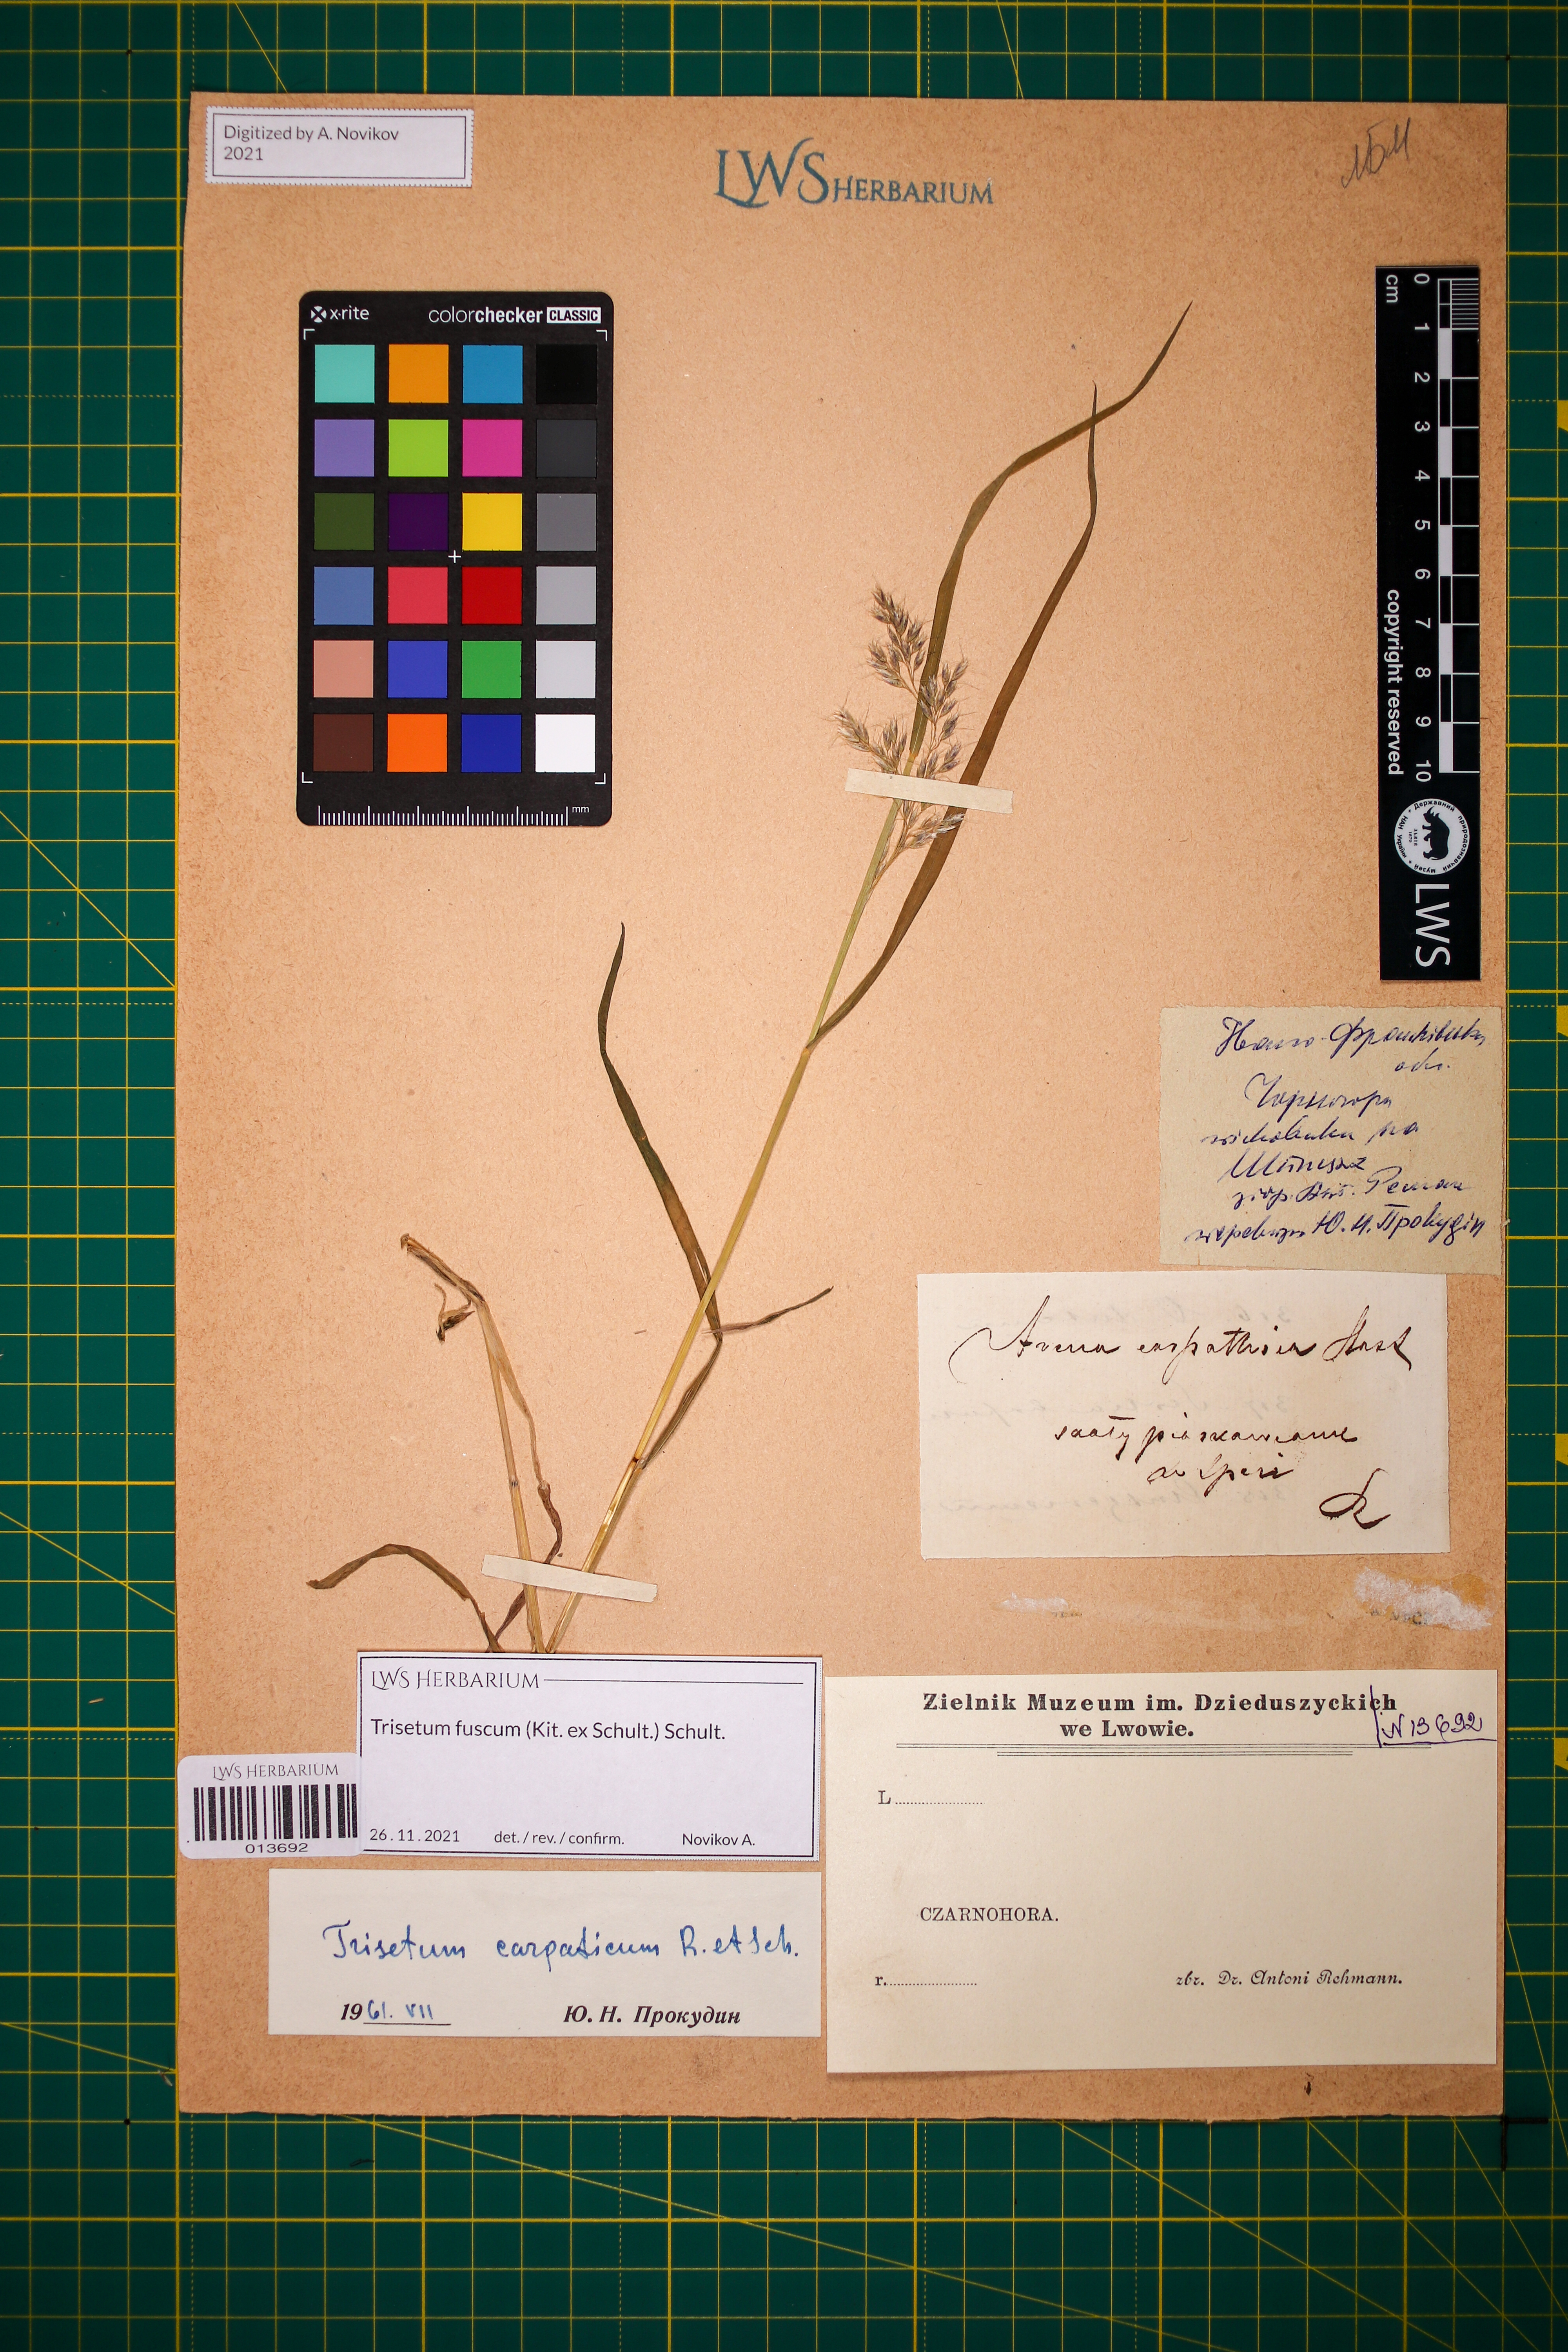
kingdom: Plantae
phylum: Tracheophyta
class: Liliopsida
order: Poales
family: Poaceae
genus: Trisetum
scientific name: Trisetum fuscum
